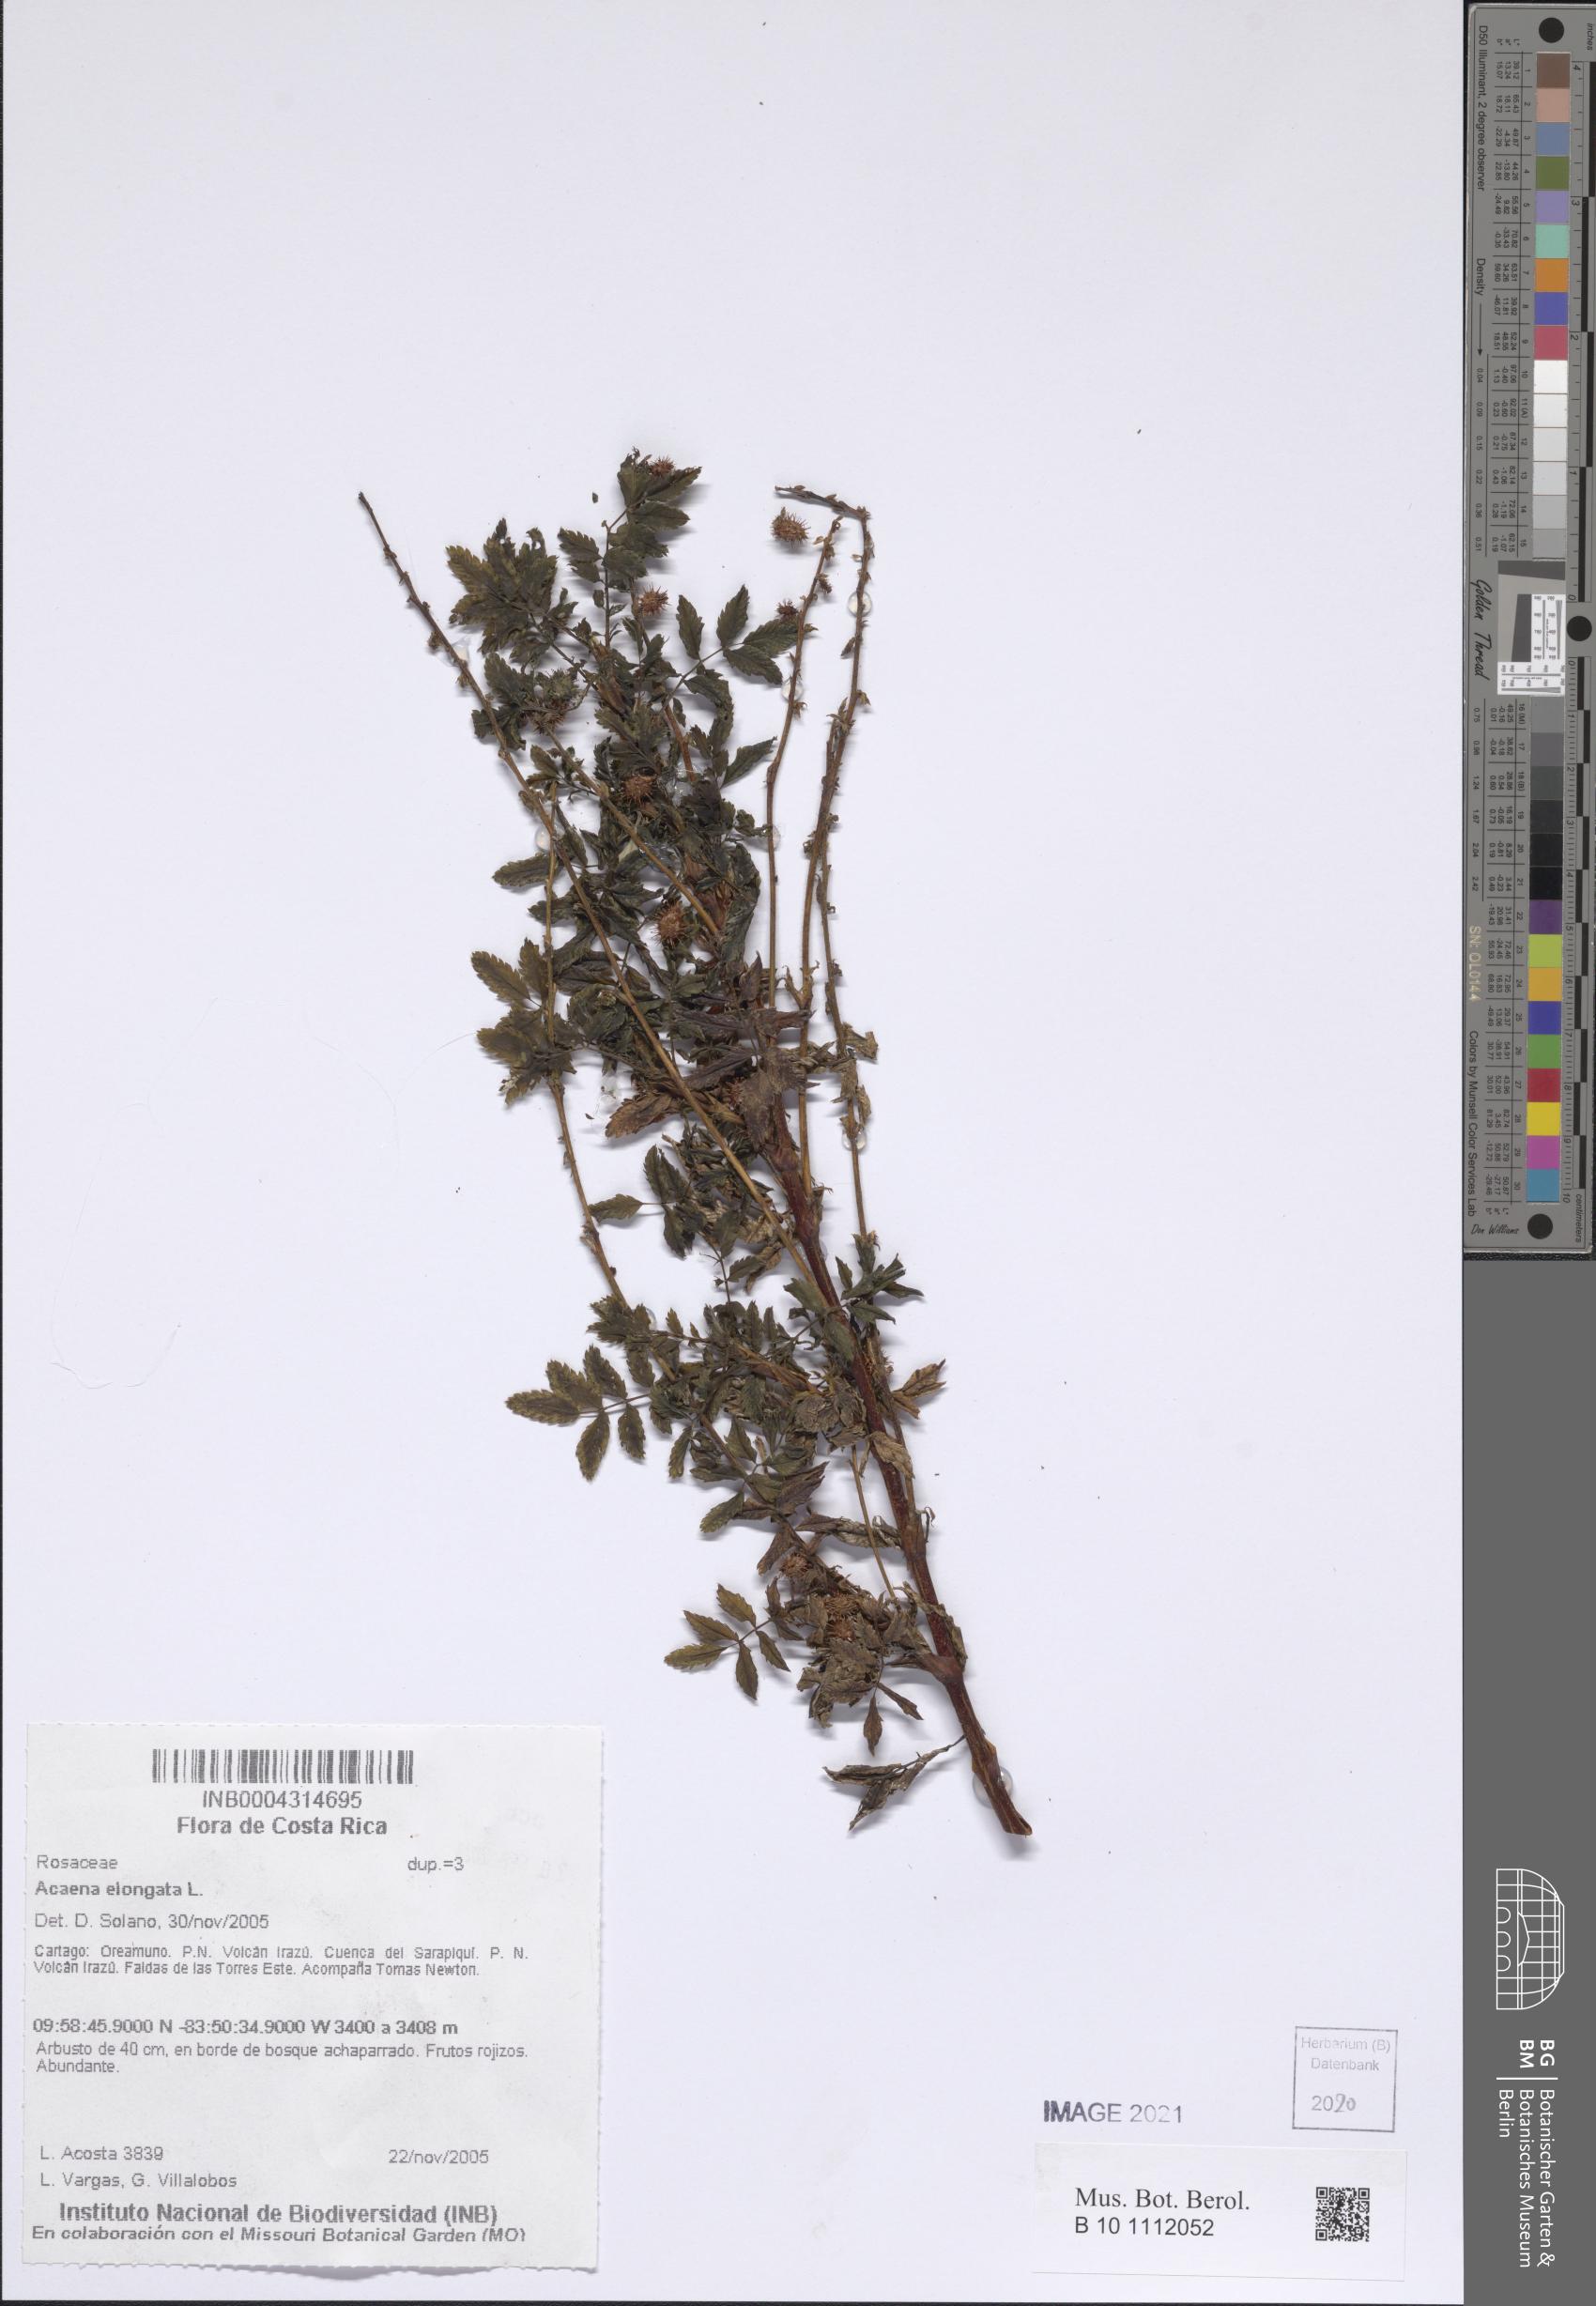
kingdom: Plantae
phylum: Tracheophyta
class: Magnoliopsida
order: Rosales
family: Rosaceae
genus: Acaena
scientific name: Acaena elongata
